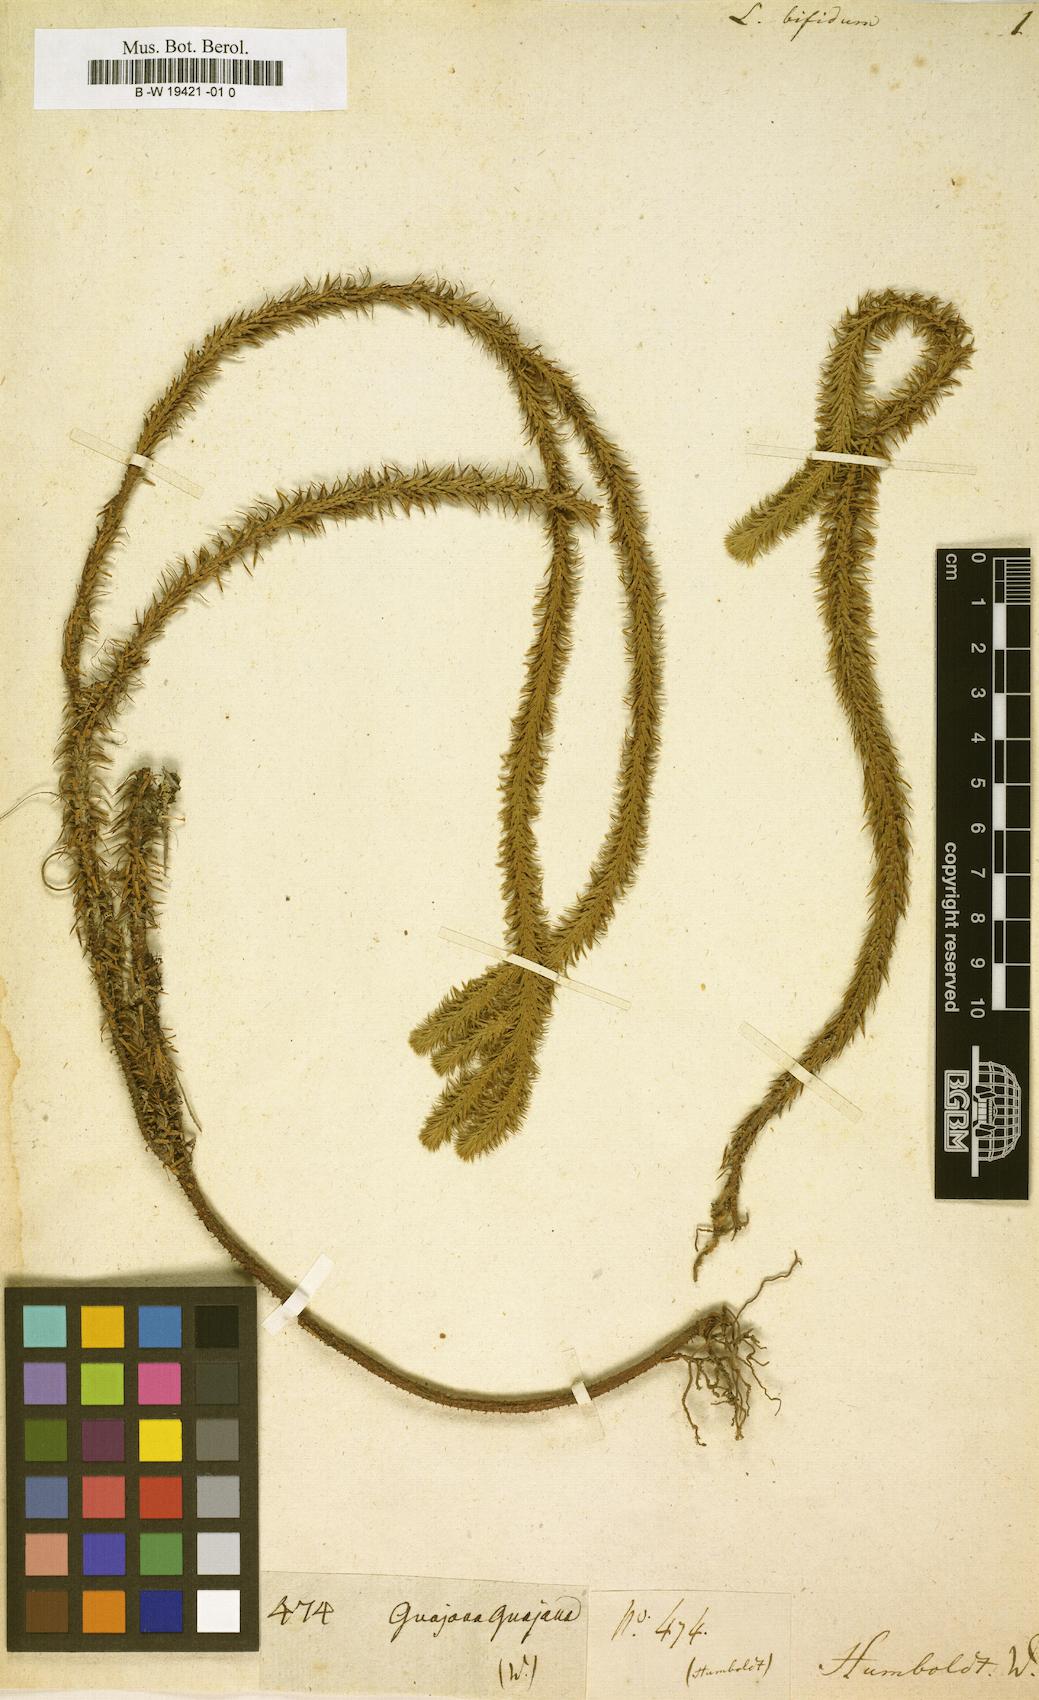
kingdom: Plantae
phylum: Tracheophyta
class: Lycopodiopsida
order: Lycopodiales
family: Lycopodiaceae
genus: Phlegmariurus
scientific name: Phlegmariurus reflexus
